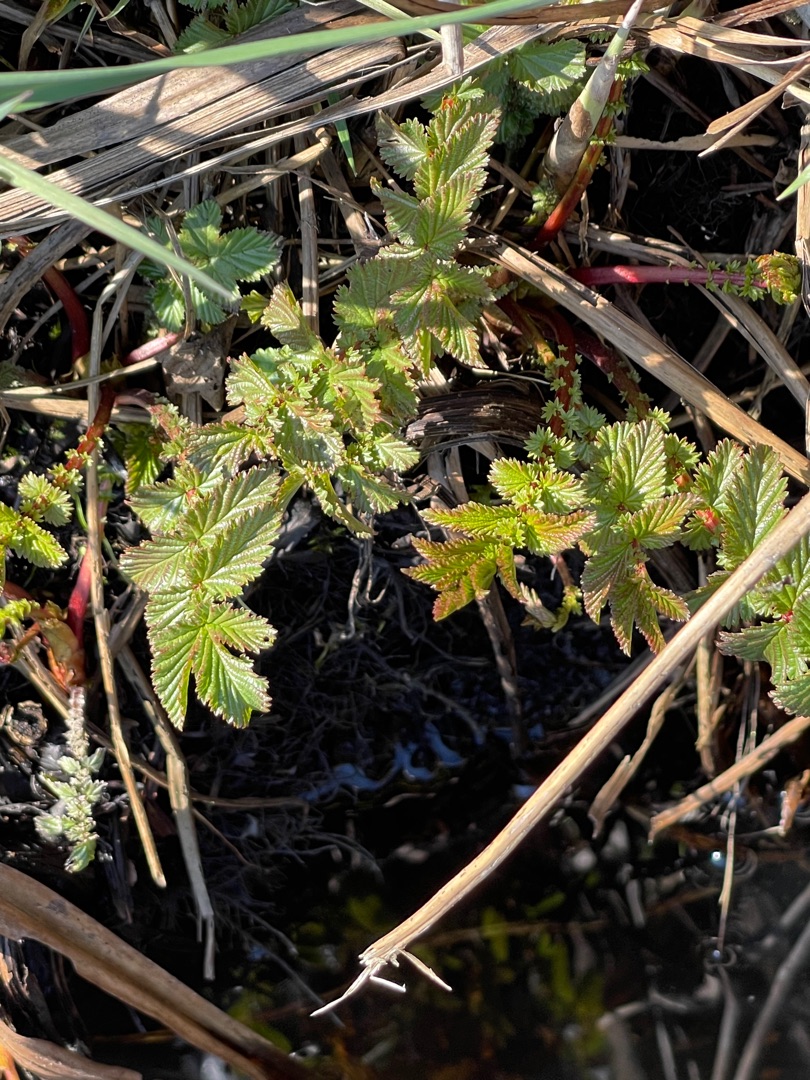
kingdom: Plantae
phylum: Tracheophyta
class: Magnoliopsida
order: Rosales
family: Rosaceae
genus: Filipendula
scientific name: Filipendula ulmaria
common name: Almindelig mjødurt
